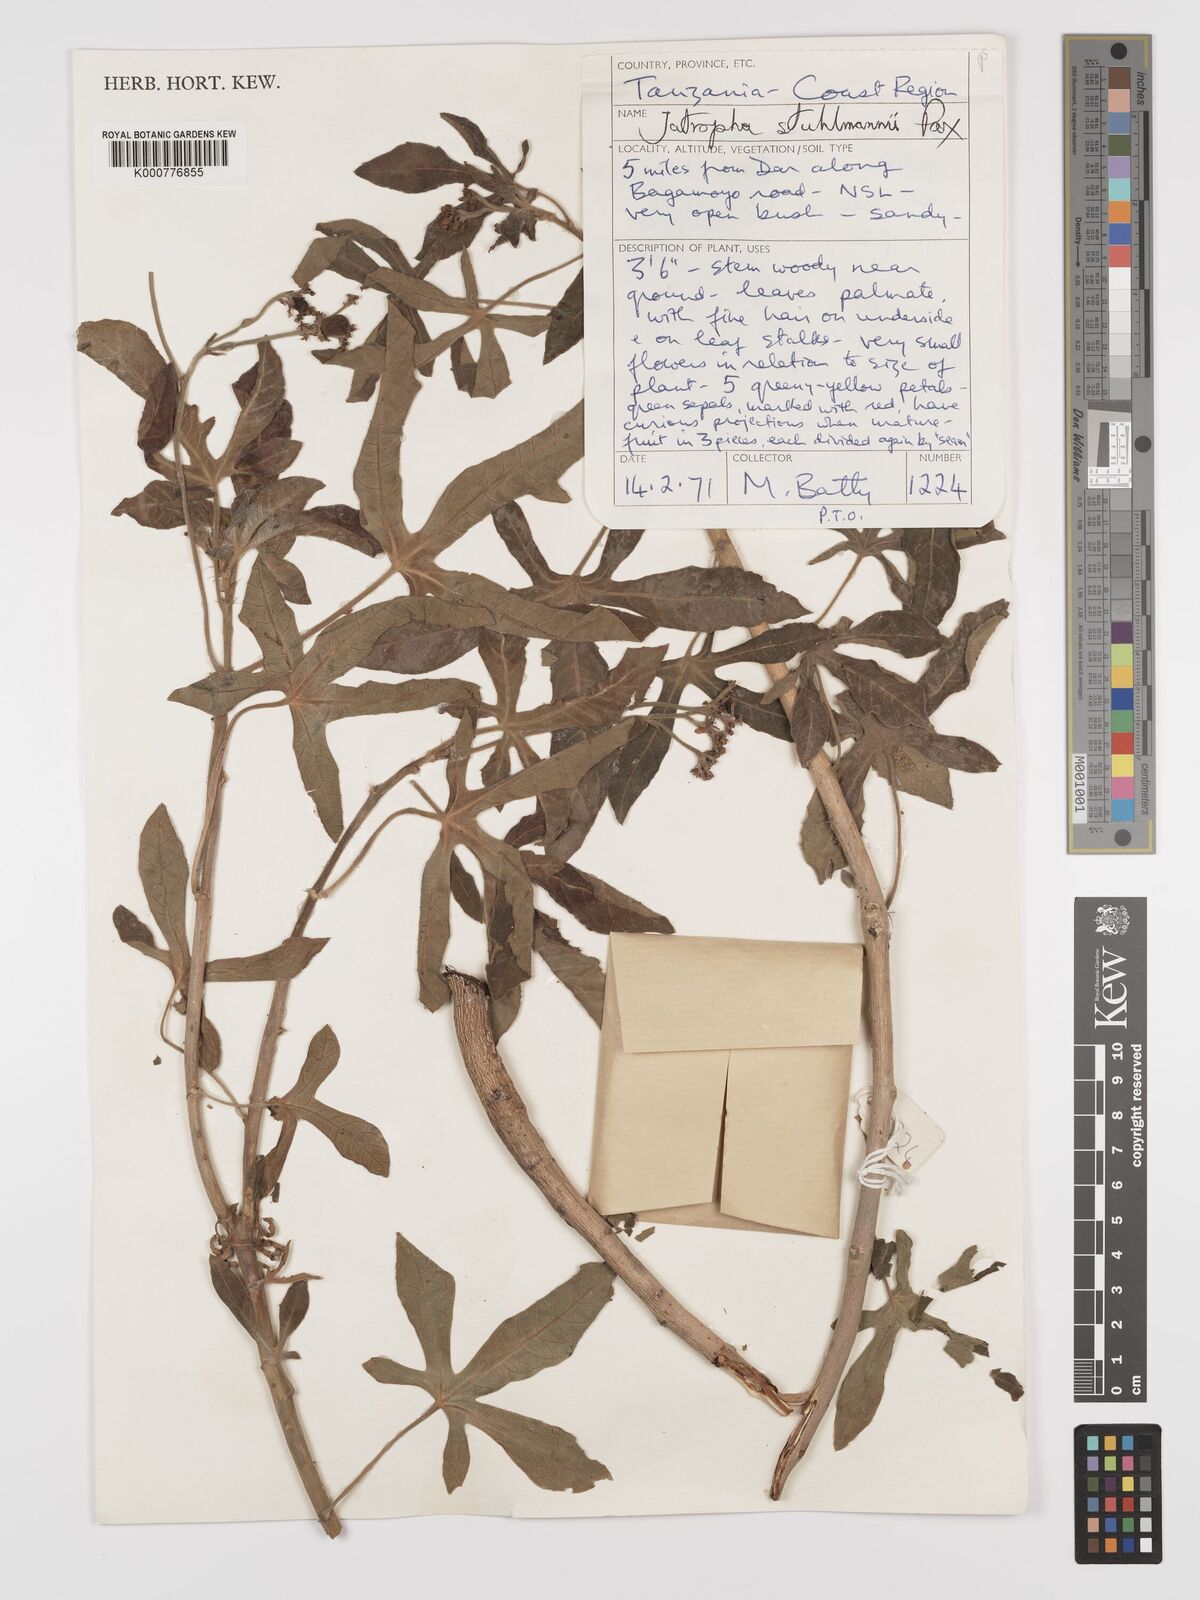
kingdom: Plantae
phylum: Tracheophyta
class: Magnoliopsida
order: Malpighiales
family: Euphorbiaceae
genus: Jatropha
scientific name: Jatropha stuhlmannii
